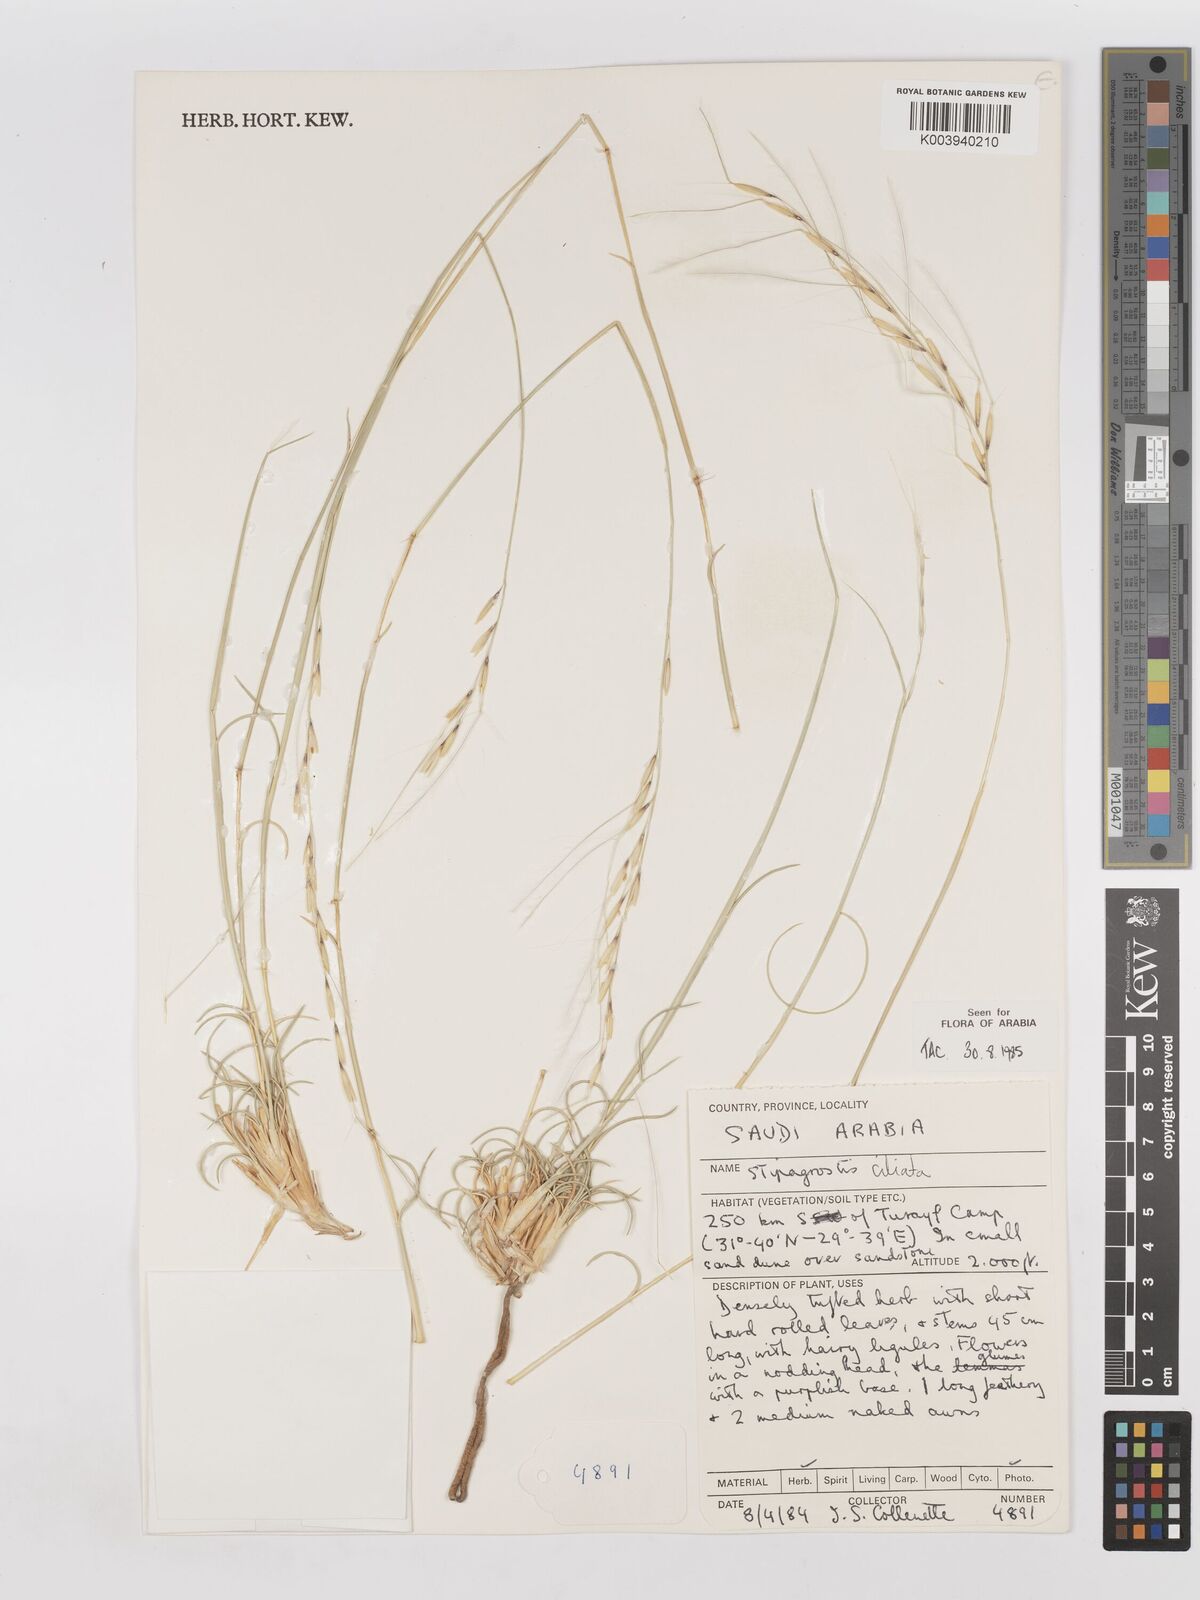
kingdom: Plantae
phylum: Tracheophyta
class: Liliopsida
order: Poales
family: Poaceae
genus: Stipagrostis
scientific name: Stipagrostis ciliata
